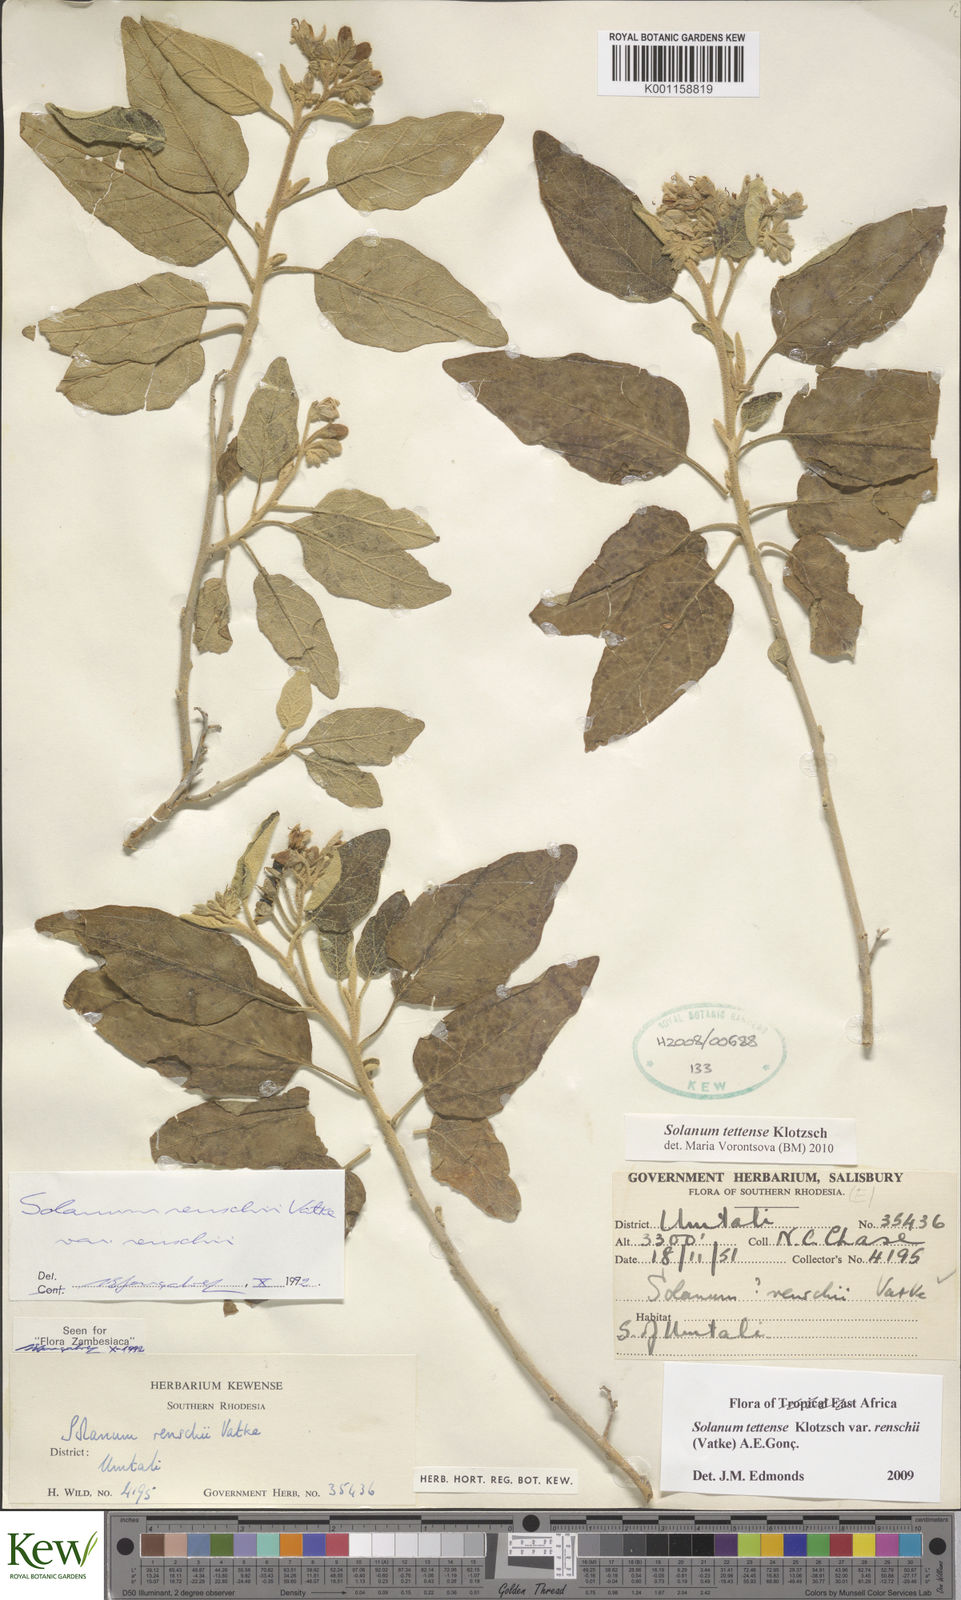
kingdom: Plantae
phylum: Tracheophyta
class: Magnoliopsida
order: Solanales
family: Solanaceae
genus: Solanum
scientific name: Solanum tettense
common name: Mozambique bitter apple
